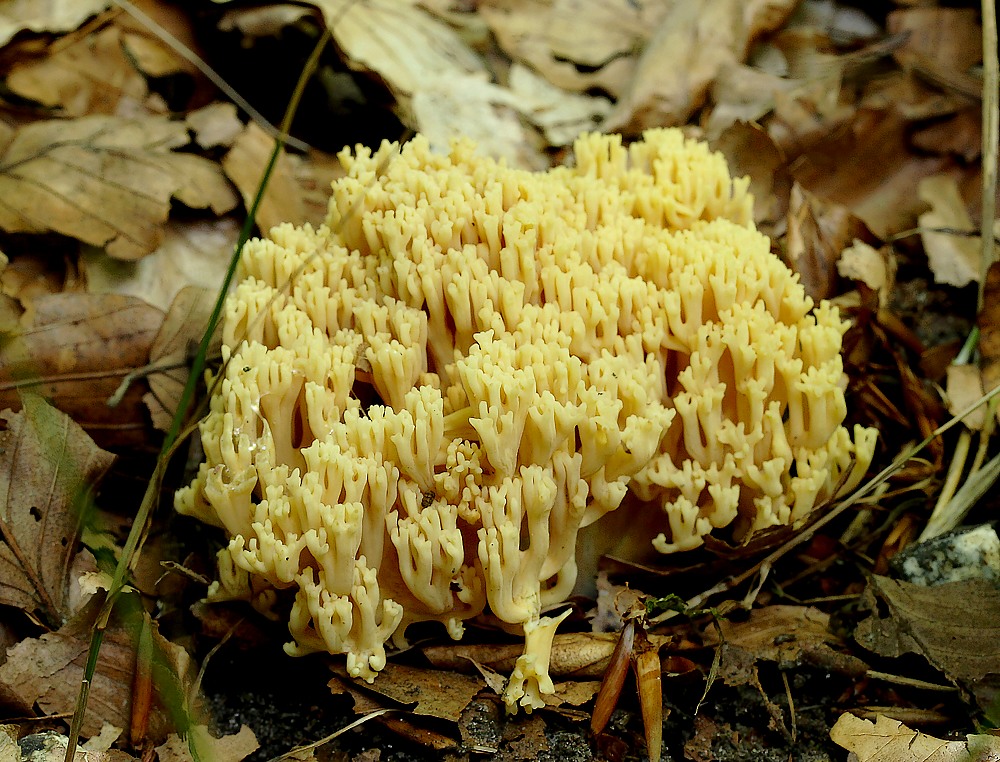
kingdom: Fungi
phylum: Basidiomycota
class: Agaricomycetes
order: Gomphales
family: Gomphaceae
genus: Ramaria
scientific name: Ramaria krieglsteineri
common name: smalsporet koralsvamp
